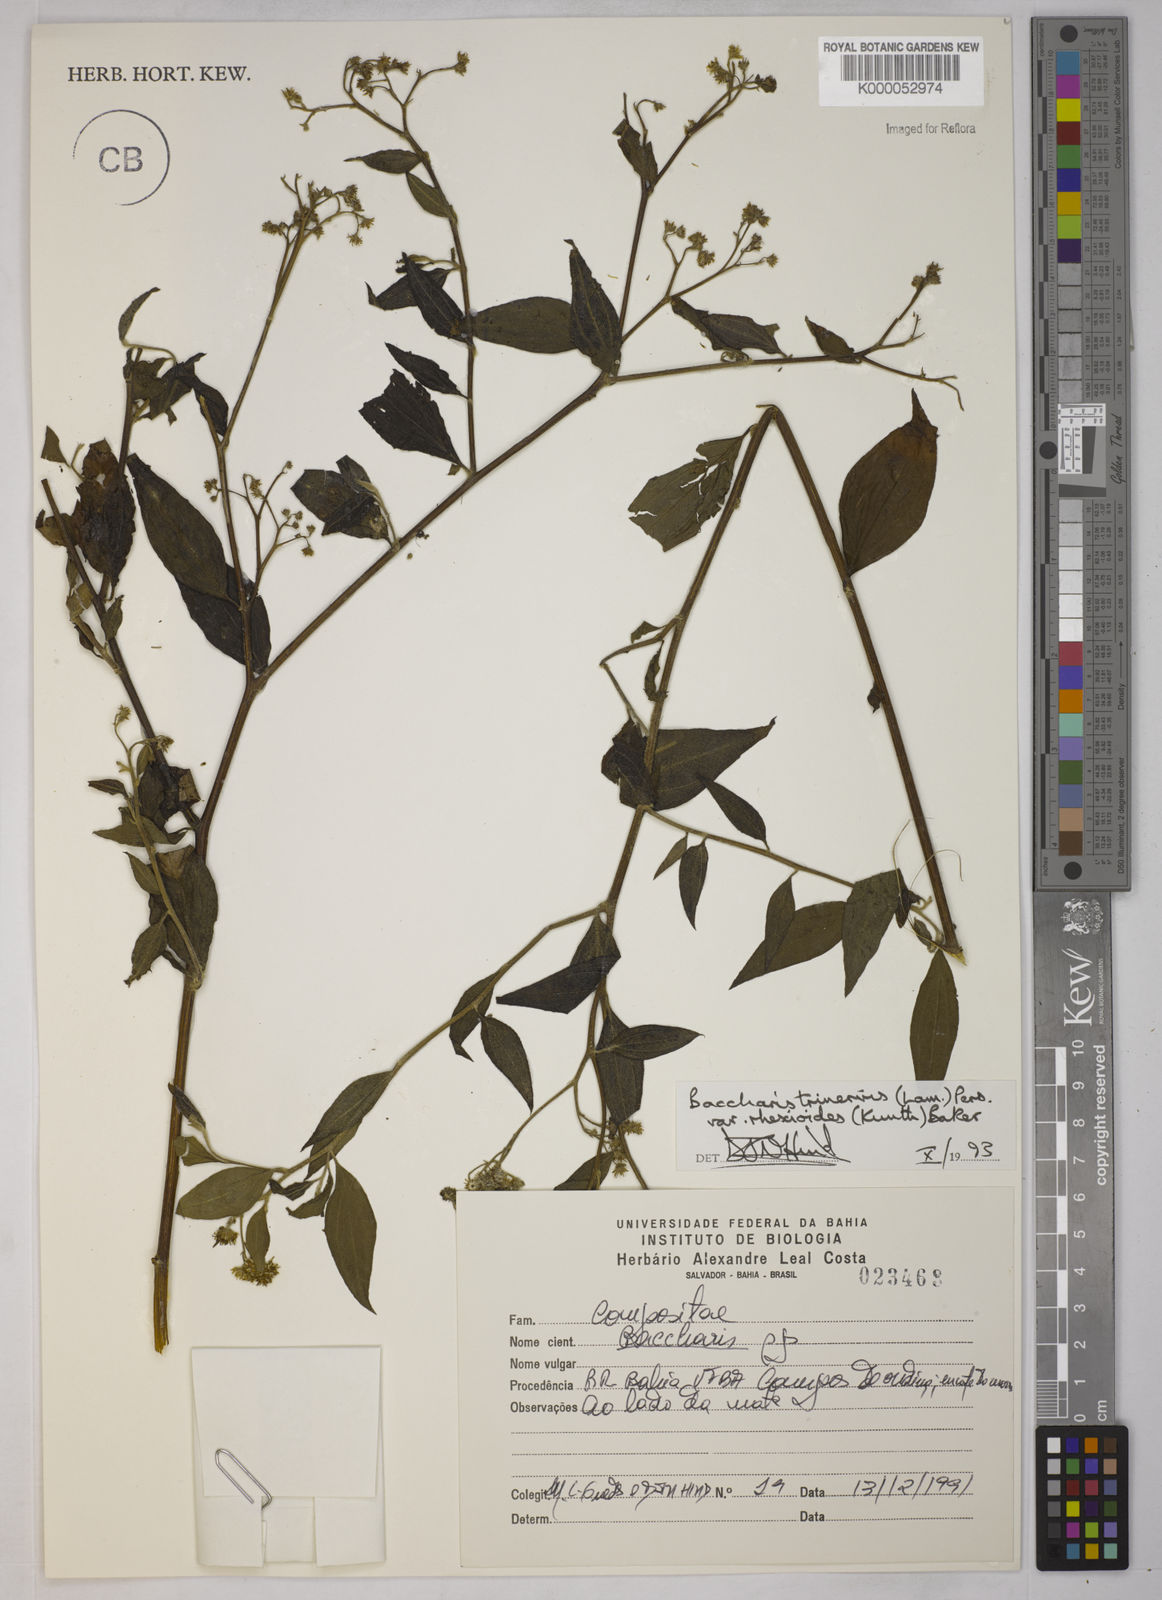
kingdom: Plantae
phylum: Tracheophyta
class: Magnoliopsida
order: Asterales
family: Asteraceae
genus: Baccharis
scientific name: Baccharis trinervis
